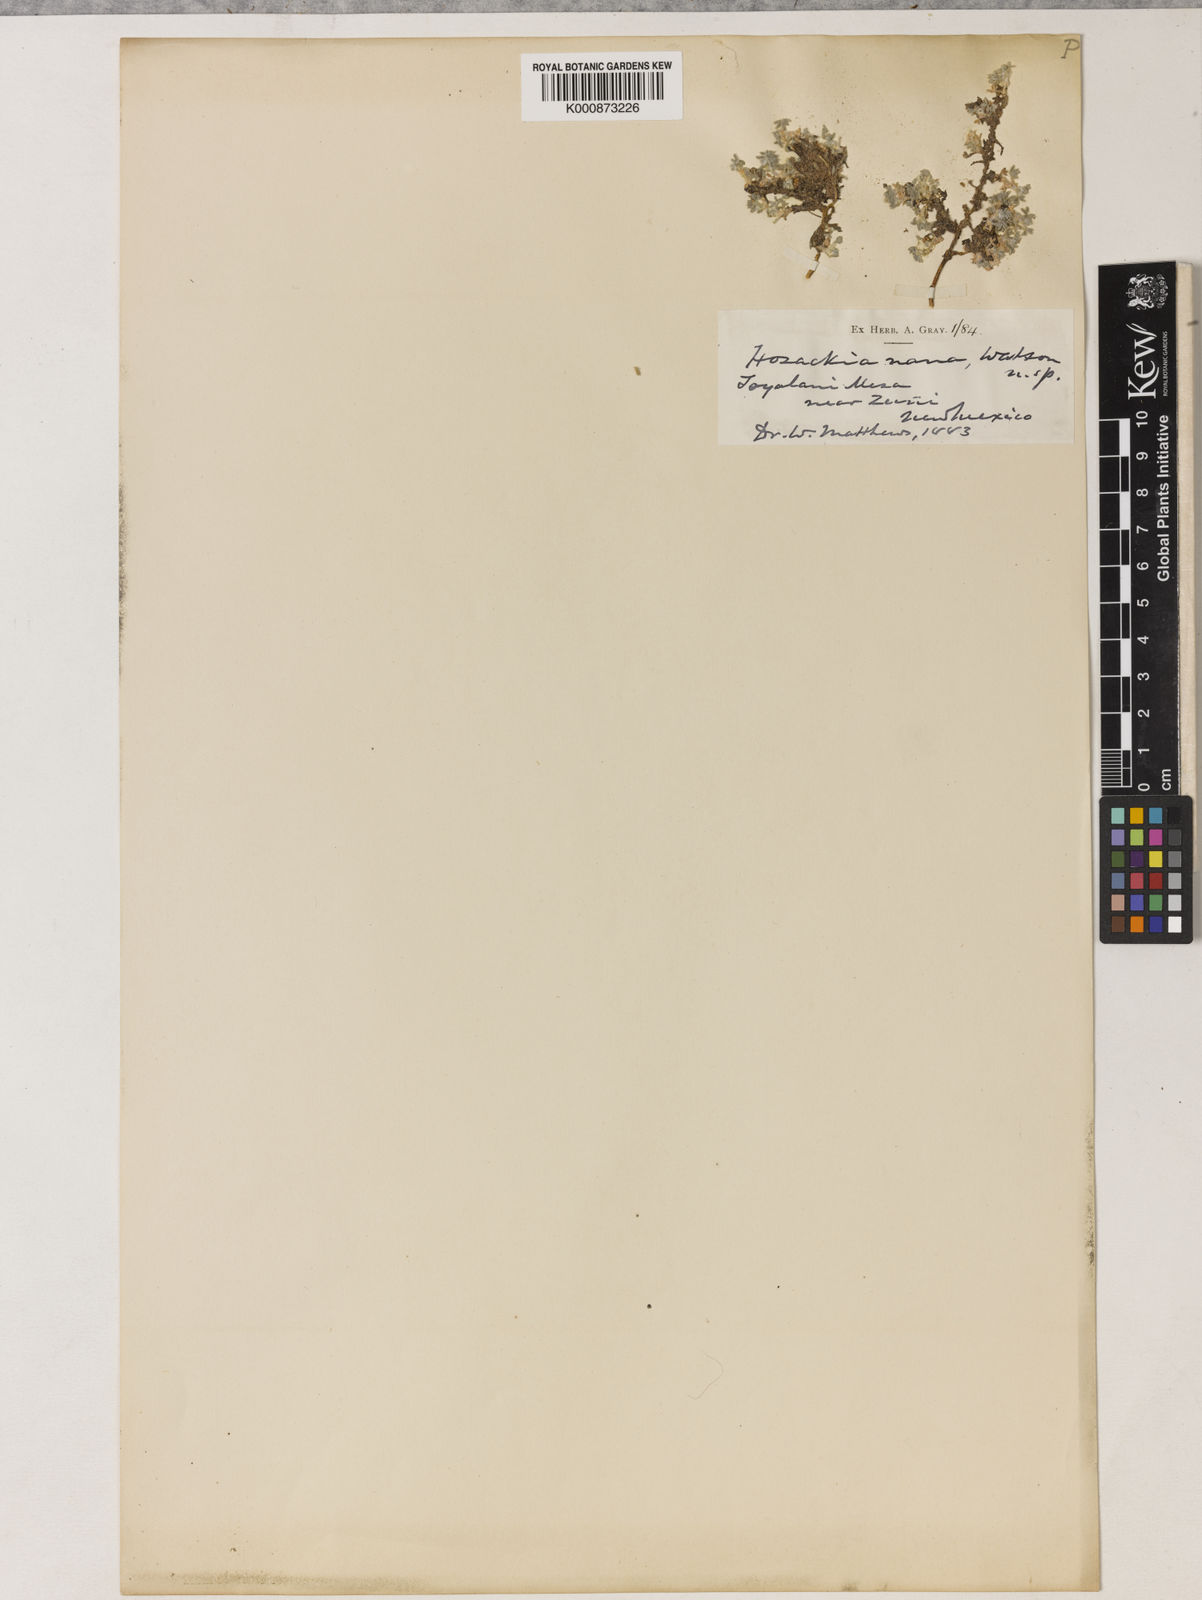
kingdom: Plantae
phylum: Tracheophyta
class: Magnoliopsida
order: Fabales
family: Fabaceae
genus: Lotus
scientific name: Lotus
